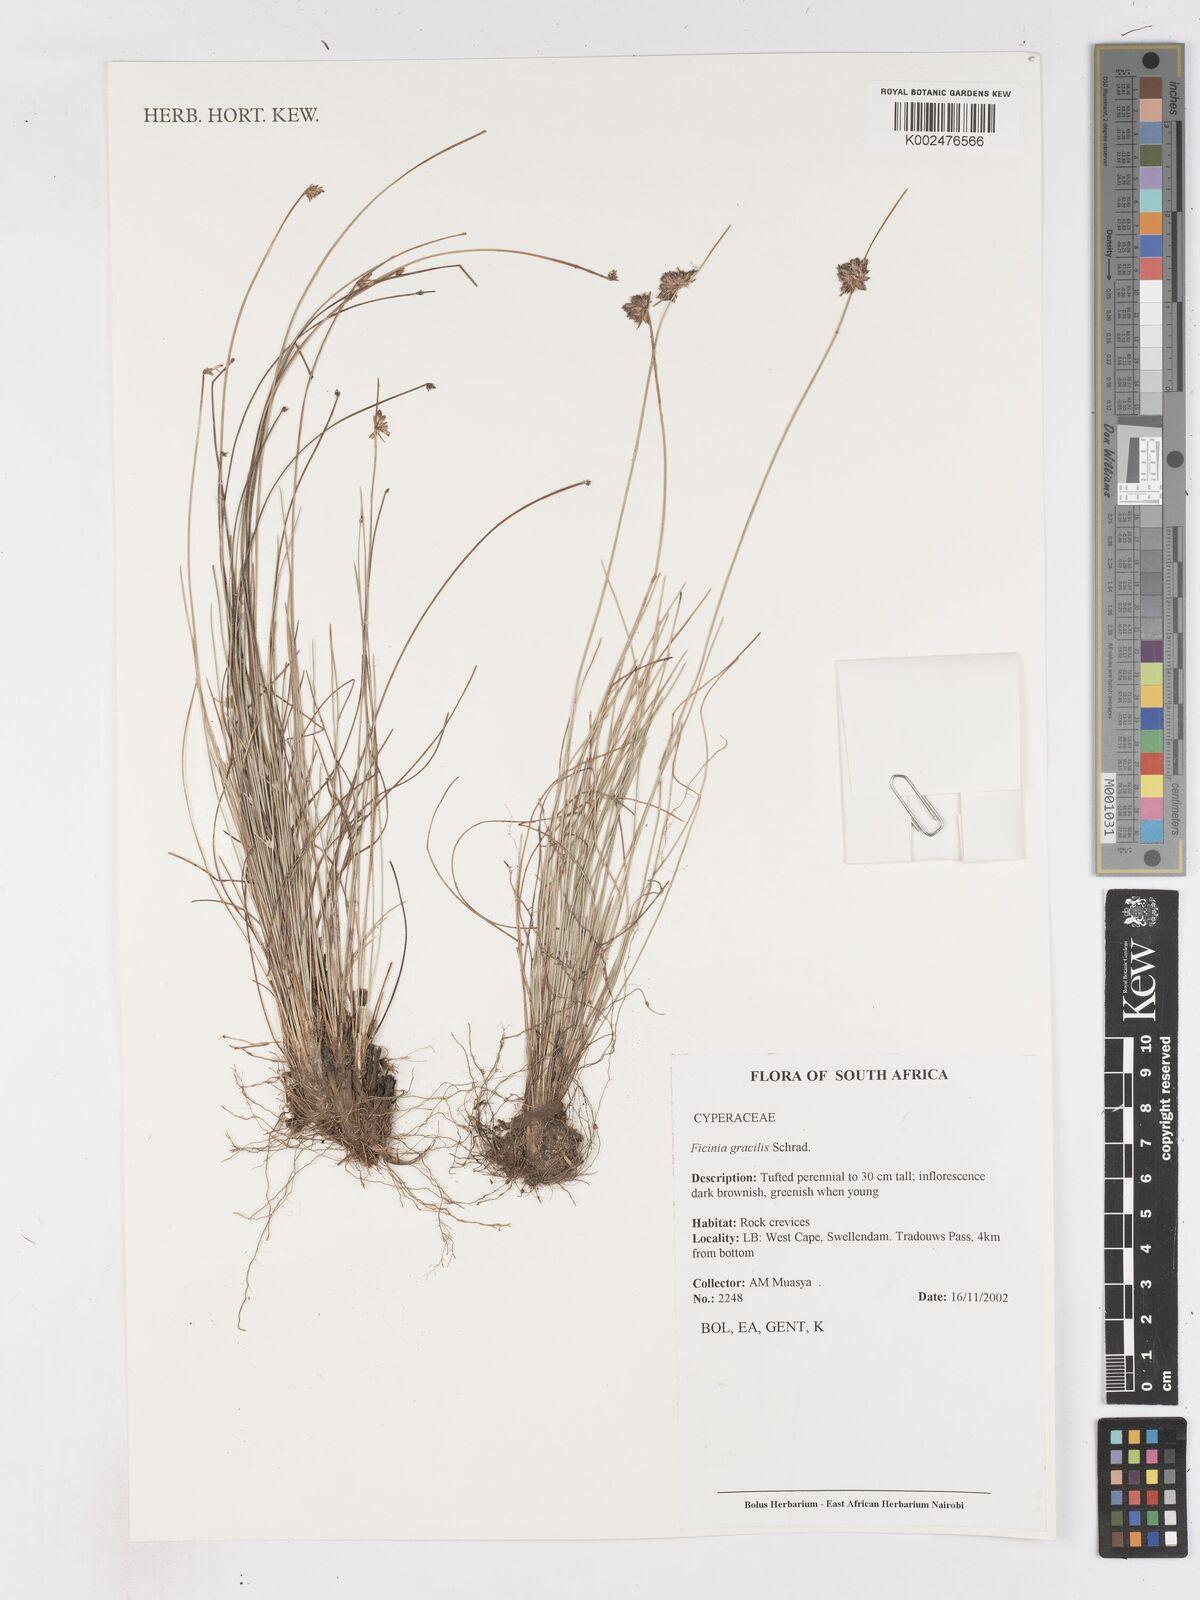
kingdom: Plantae
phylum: Tracheophyta
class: Liliopsida
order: Poales
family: Cyperaceae
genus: Ficinia
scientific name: Ficinia
